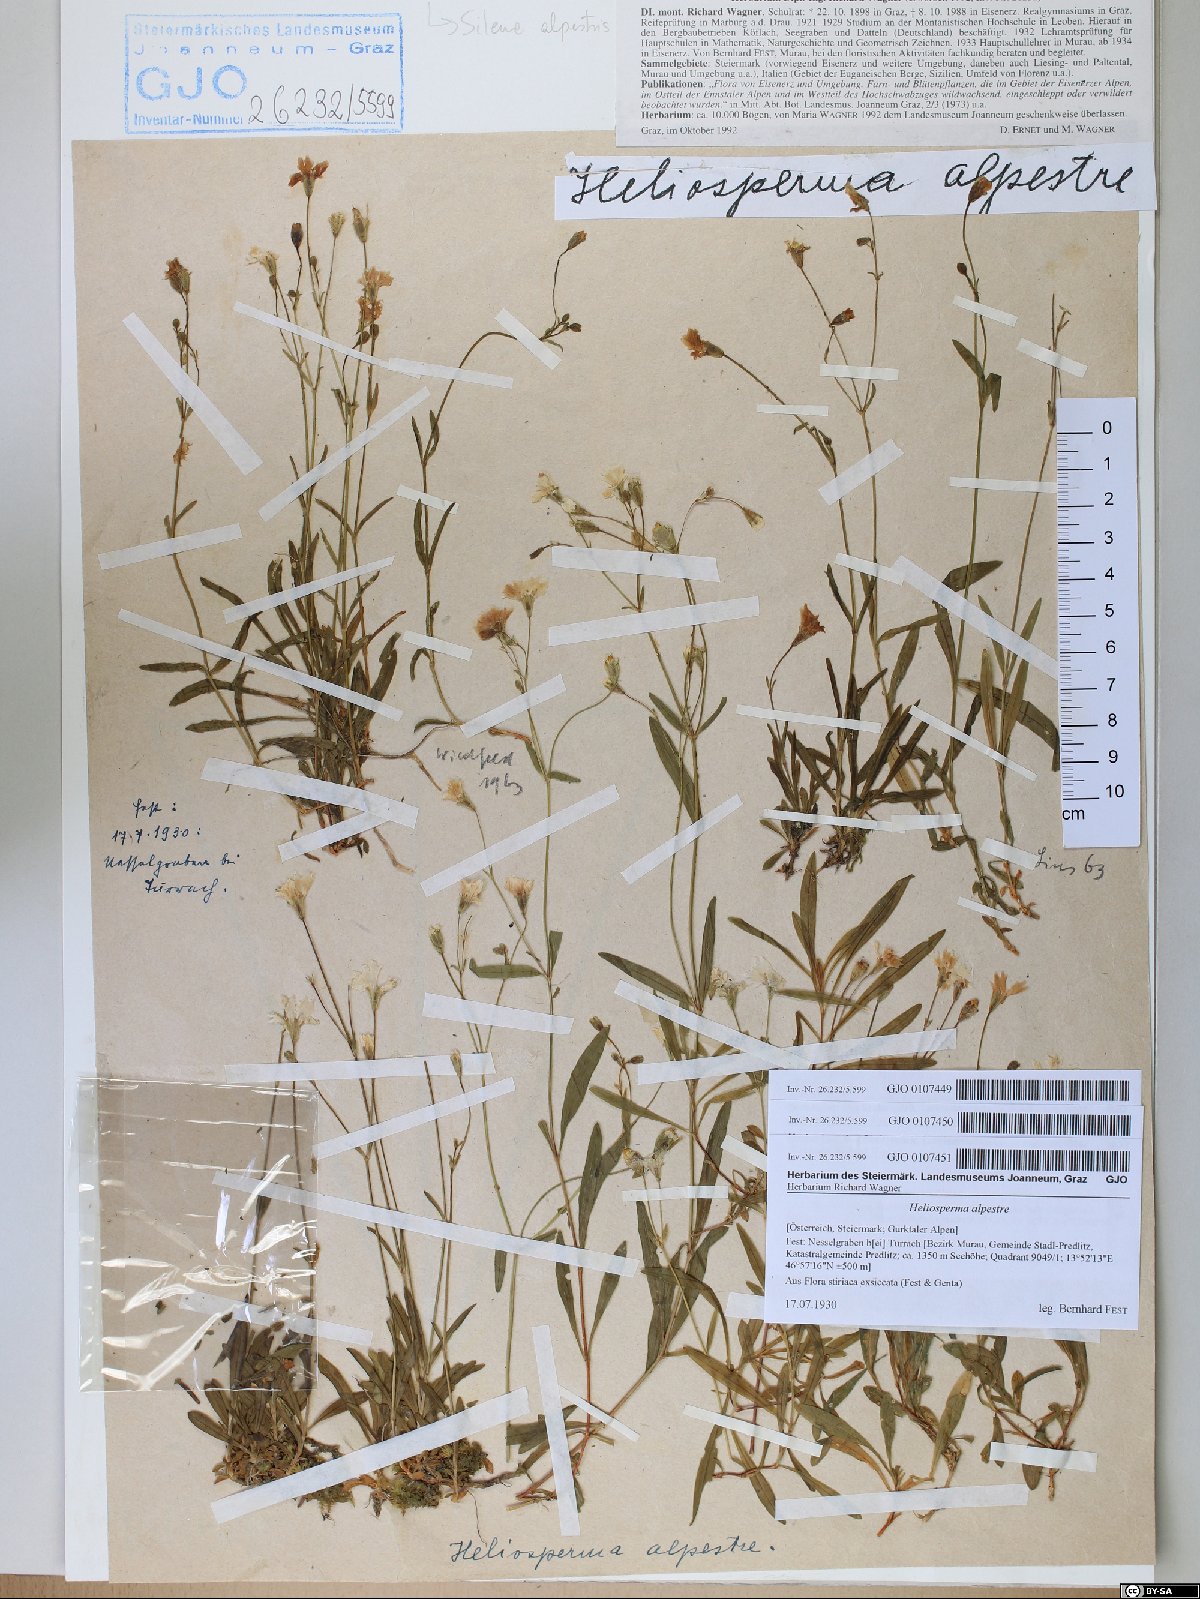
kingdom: Plantae
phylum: Tracheophyta
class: Magnoliopsida
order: Caryophyllales
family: Caryophyllaceae
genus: Heliosperma
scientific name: Heliosperma alpestre
